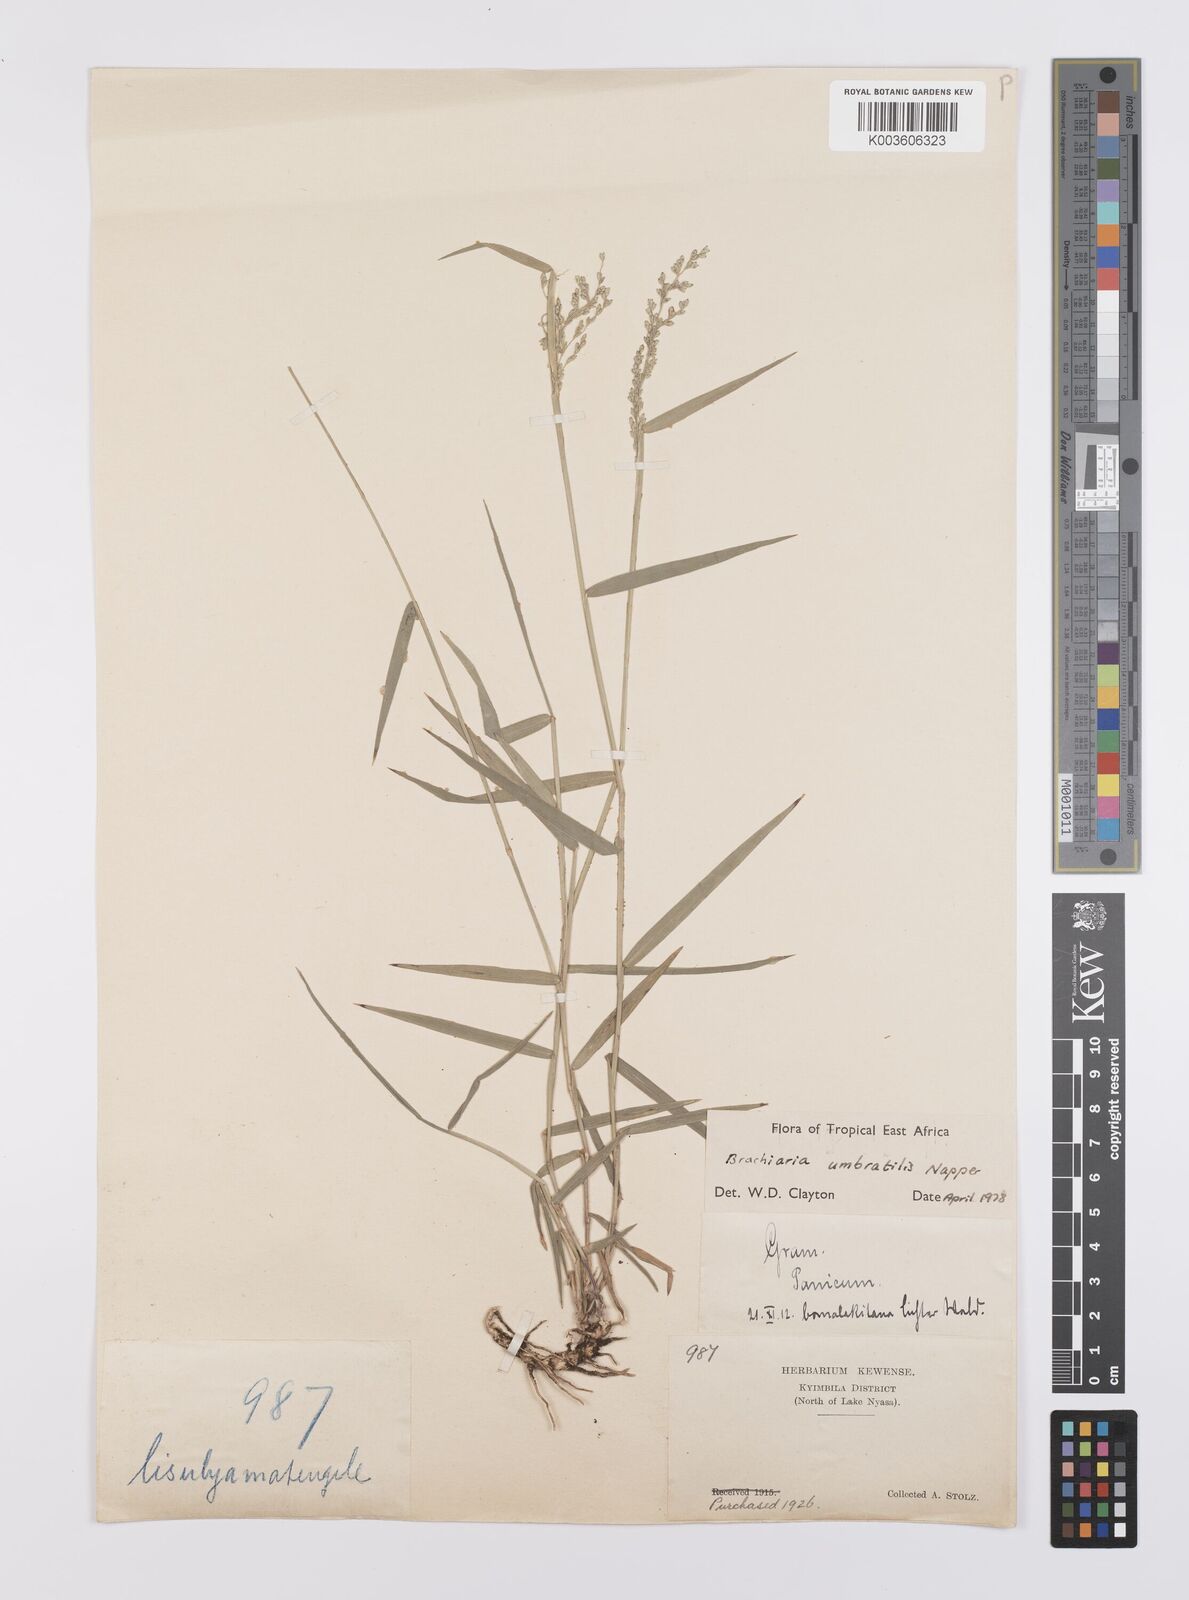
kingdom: Plantae
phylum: Tracheophyta
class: Liliopsida
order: Poales
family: Poaceae
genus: Urochloa
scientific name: Urochloa Brachiaria umbratilis
